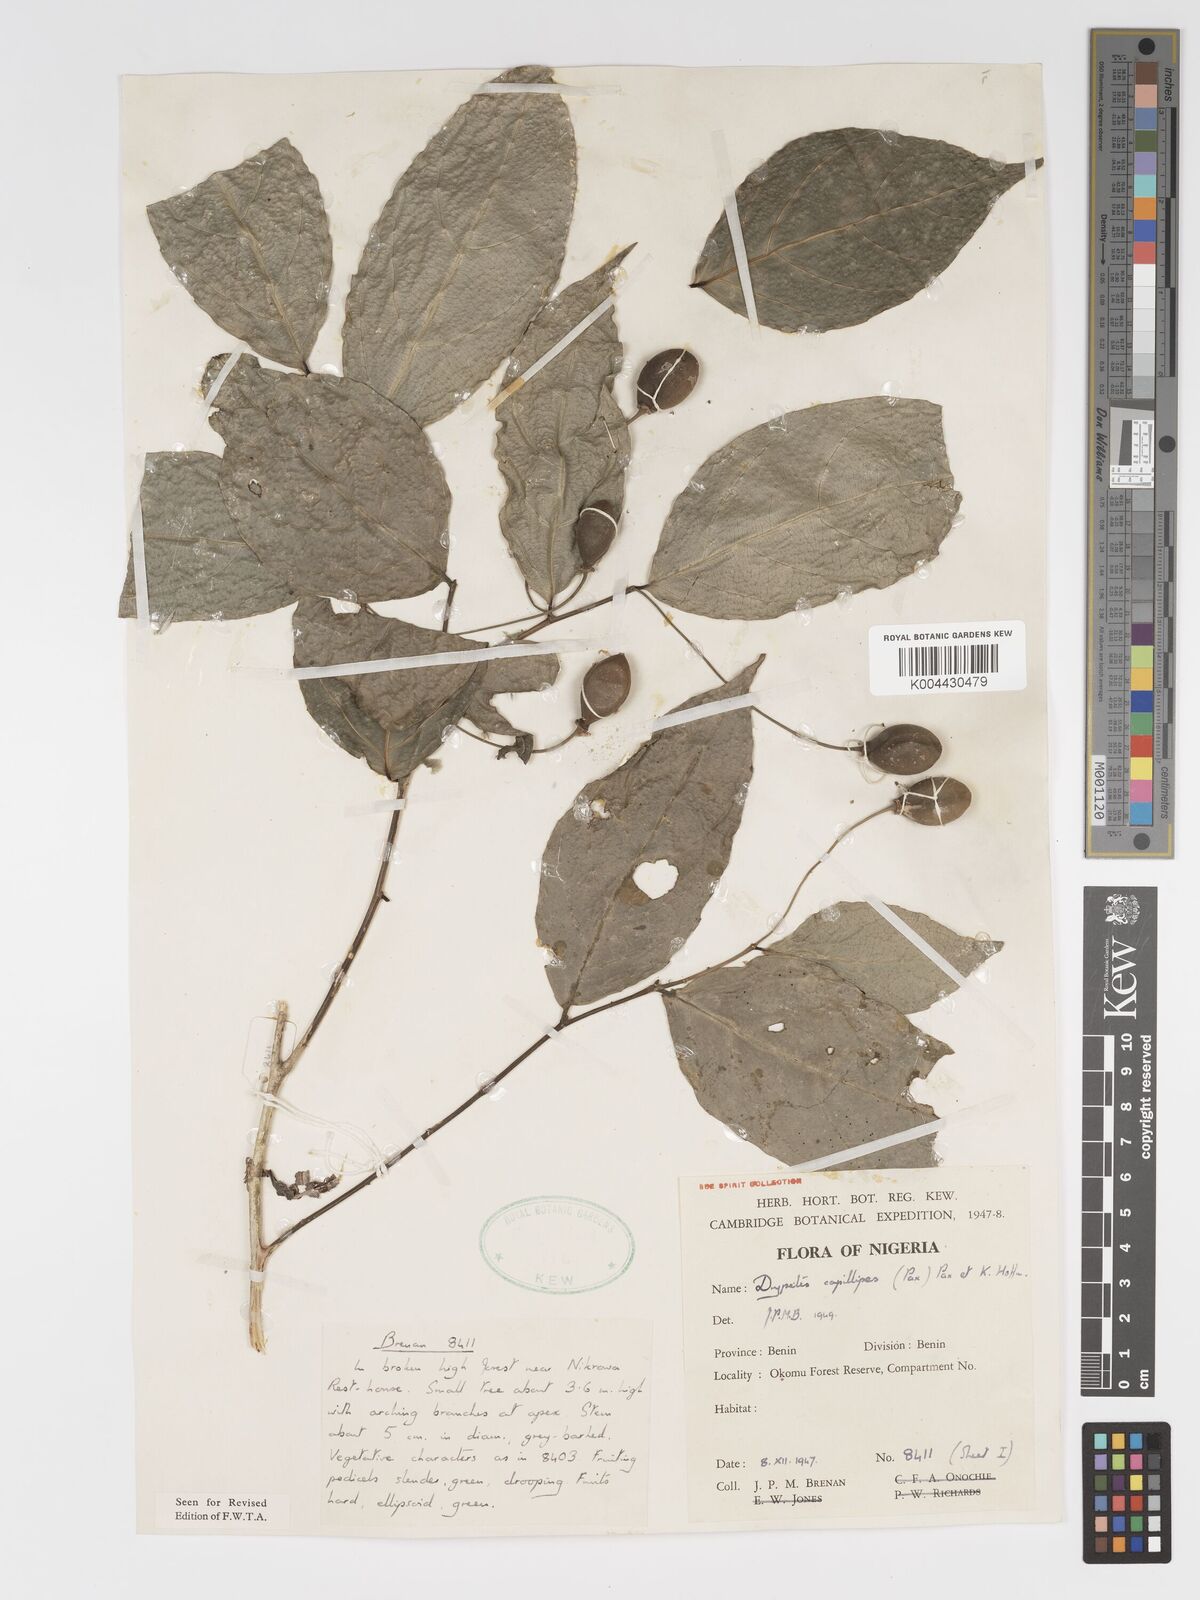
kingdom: Plantae
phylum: Tracheophyta
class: Magnoliopsida
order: Malpighiales
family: Putranjivaceae
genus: Drypetes
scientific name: Drypetes capillipes
